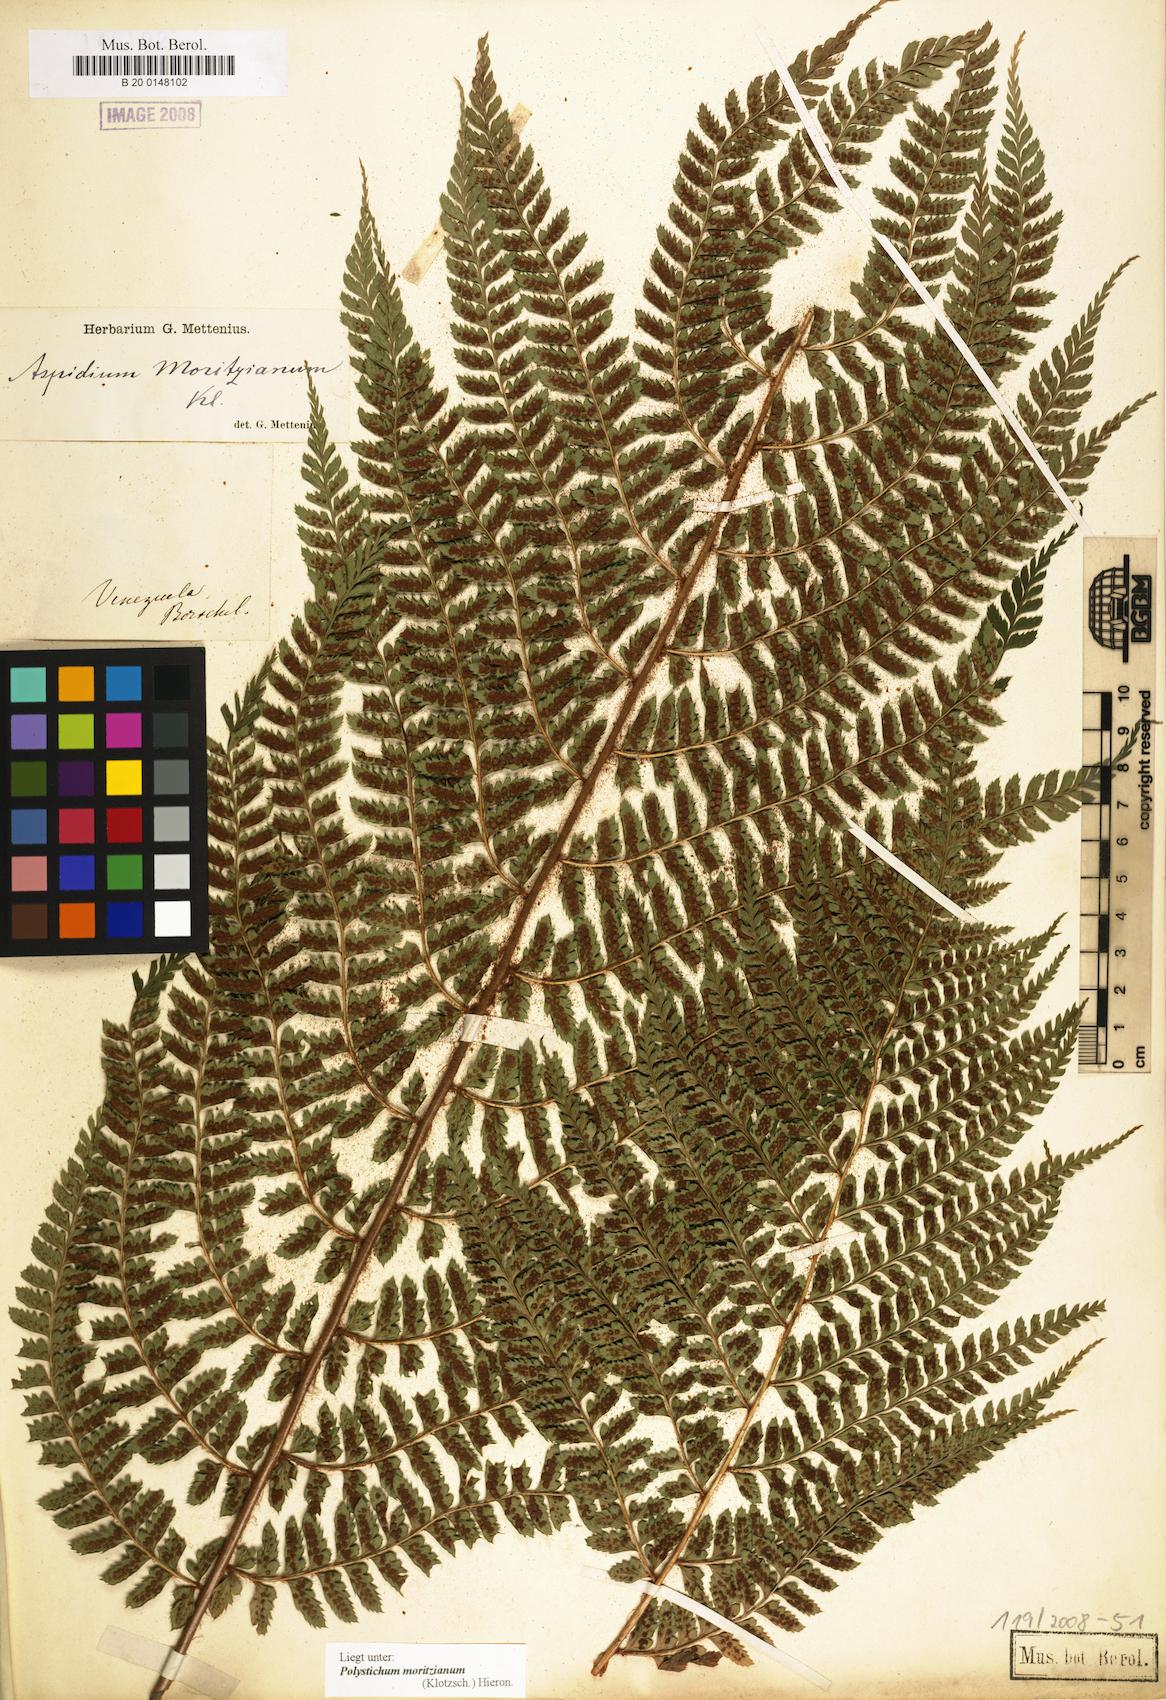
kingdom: Plantae
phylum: Tracheophyta
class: Polypodiopsida
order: Polypodiales
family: Dryopteridaceae
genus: Polystichum
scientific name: Polystichum muricatum
